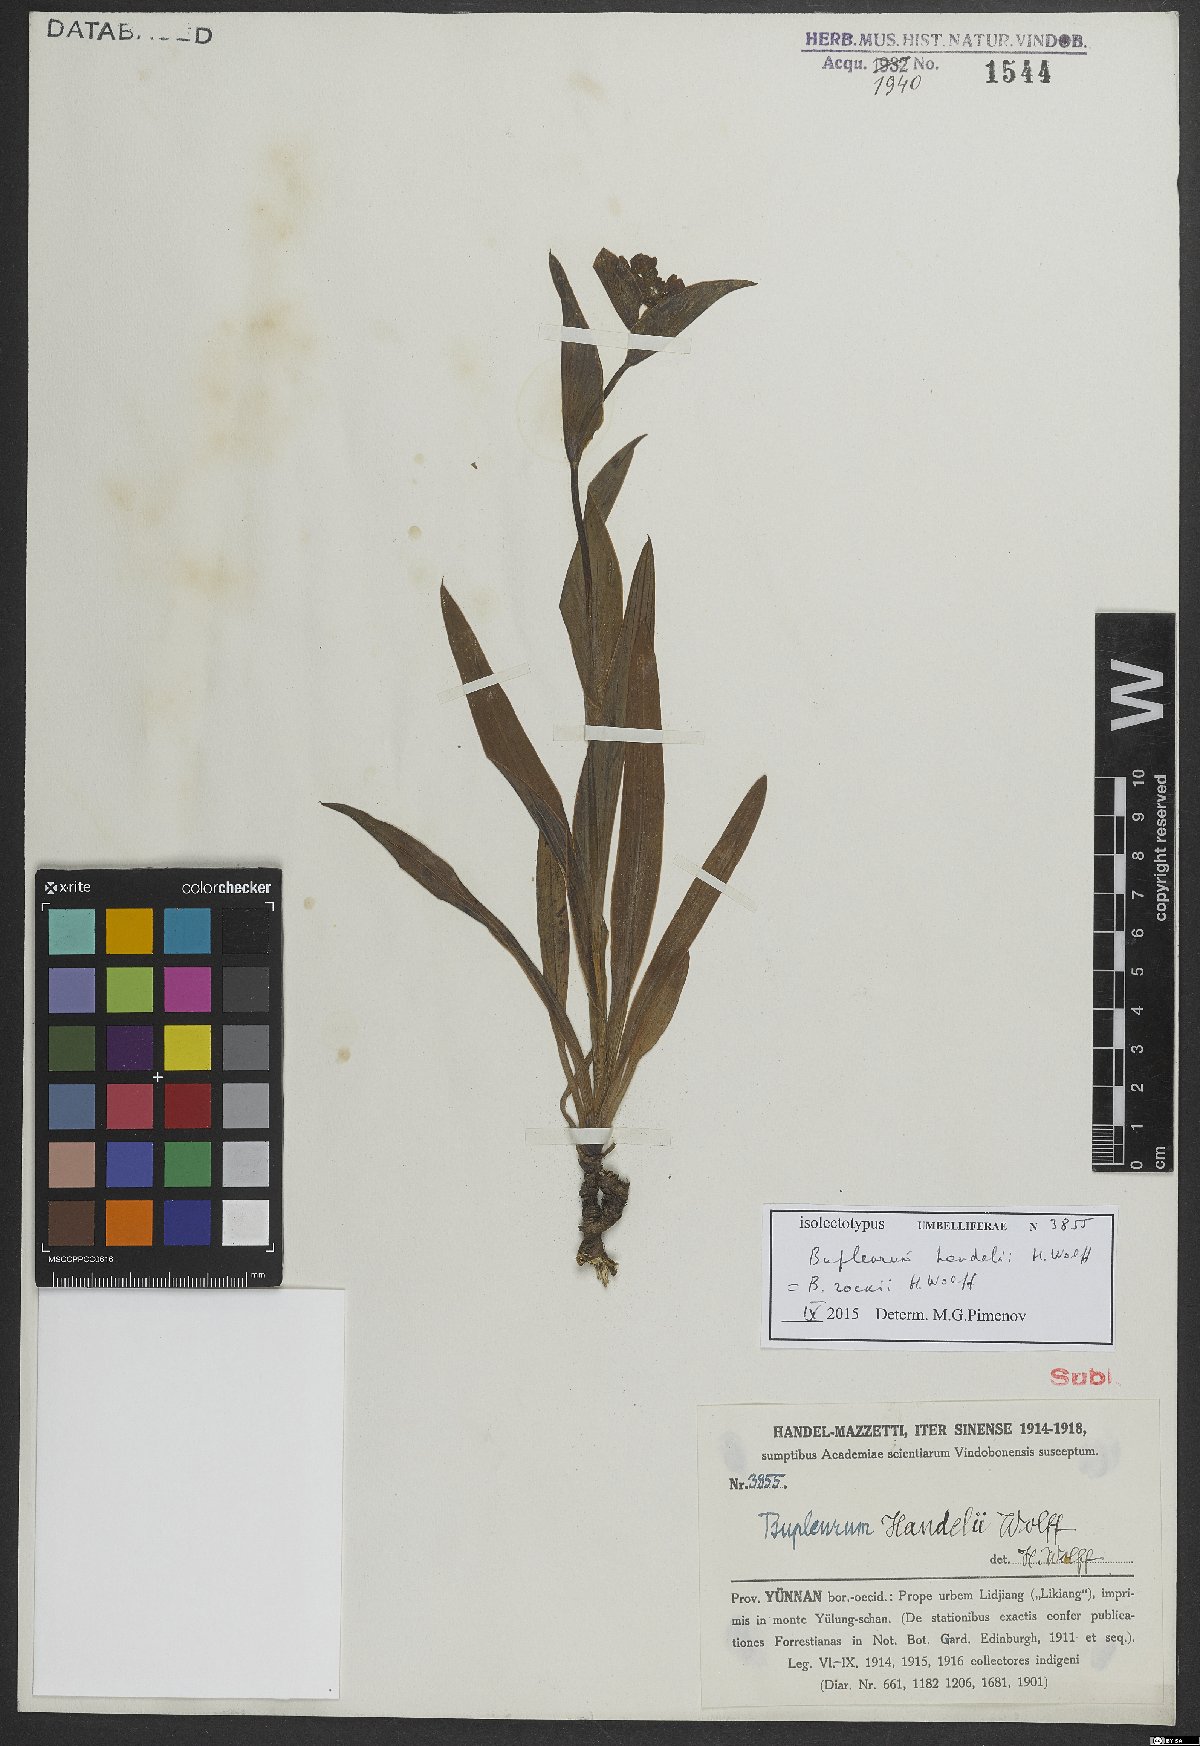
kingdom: Plantae
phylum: Tracheophyta
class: Magnoliopsida
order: Apiales
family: Apiaceae
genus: Bupleurum
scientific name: Bupleurum rockii
